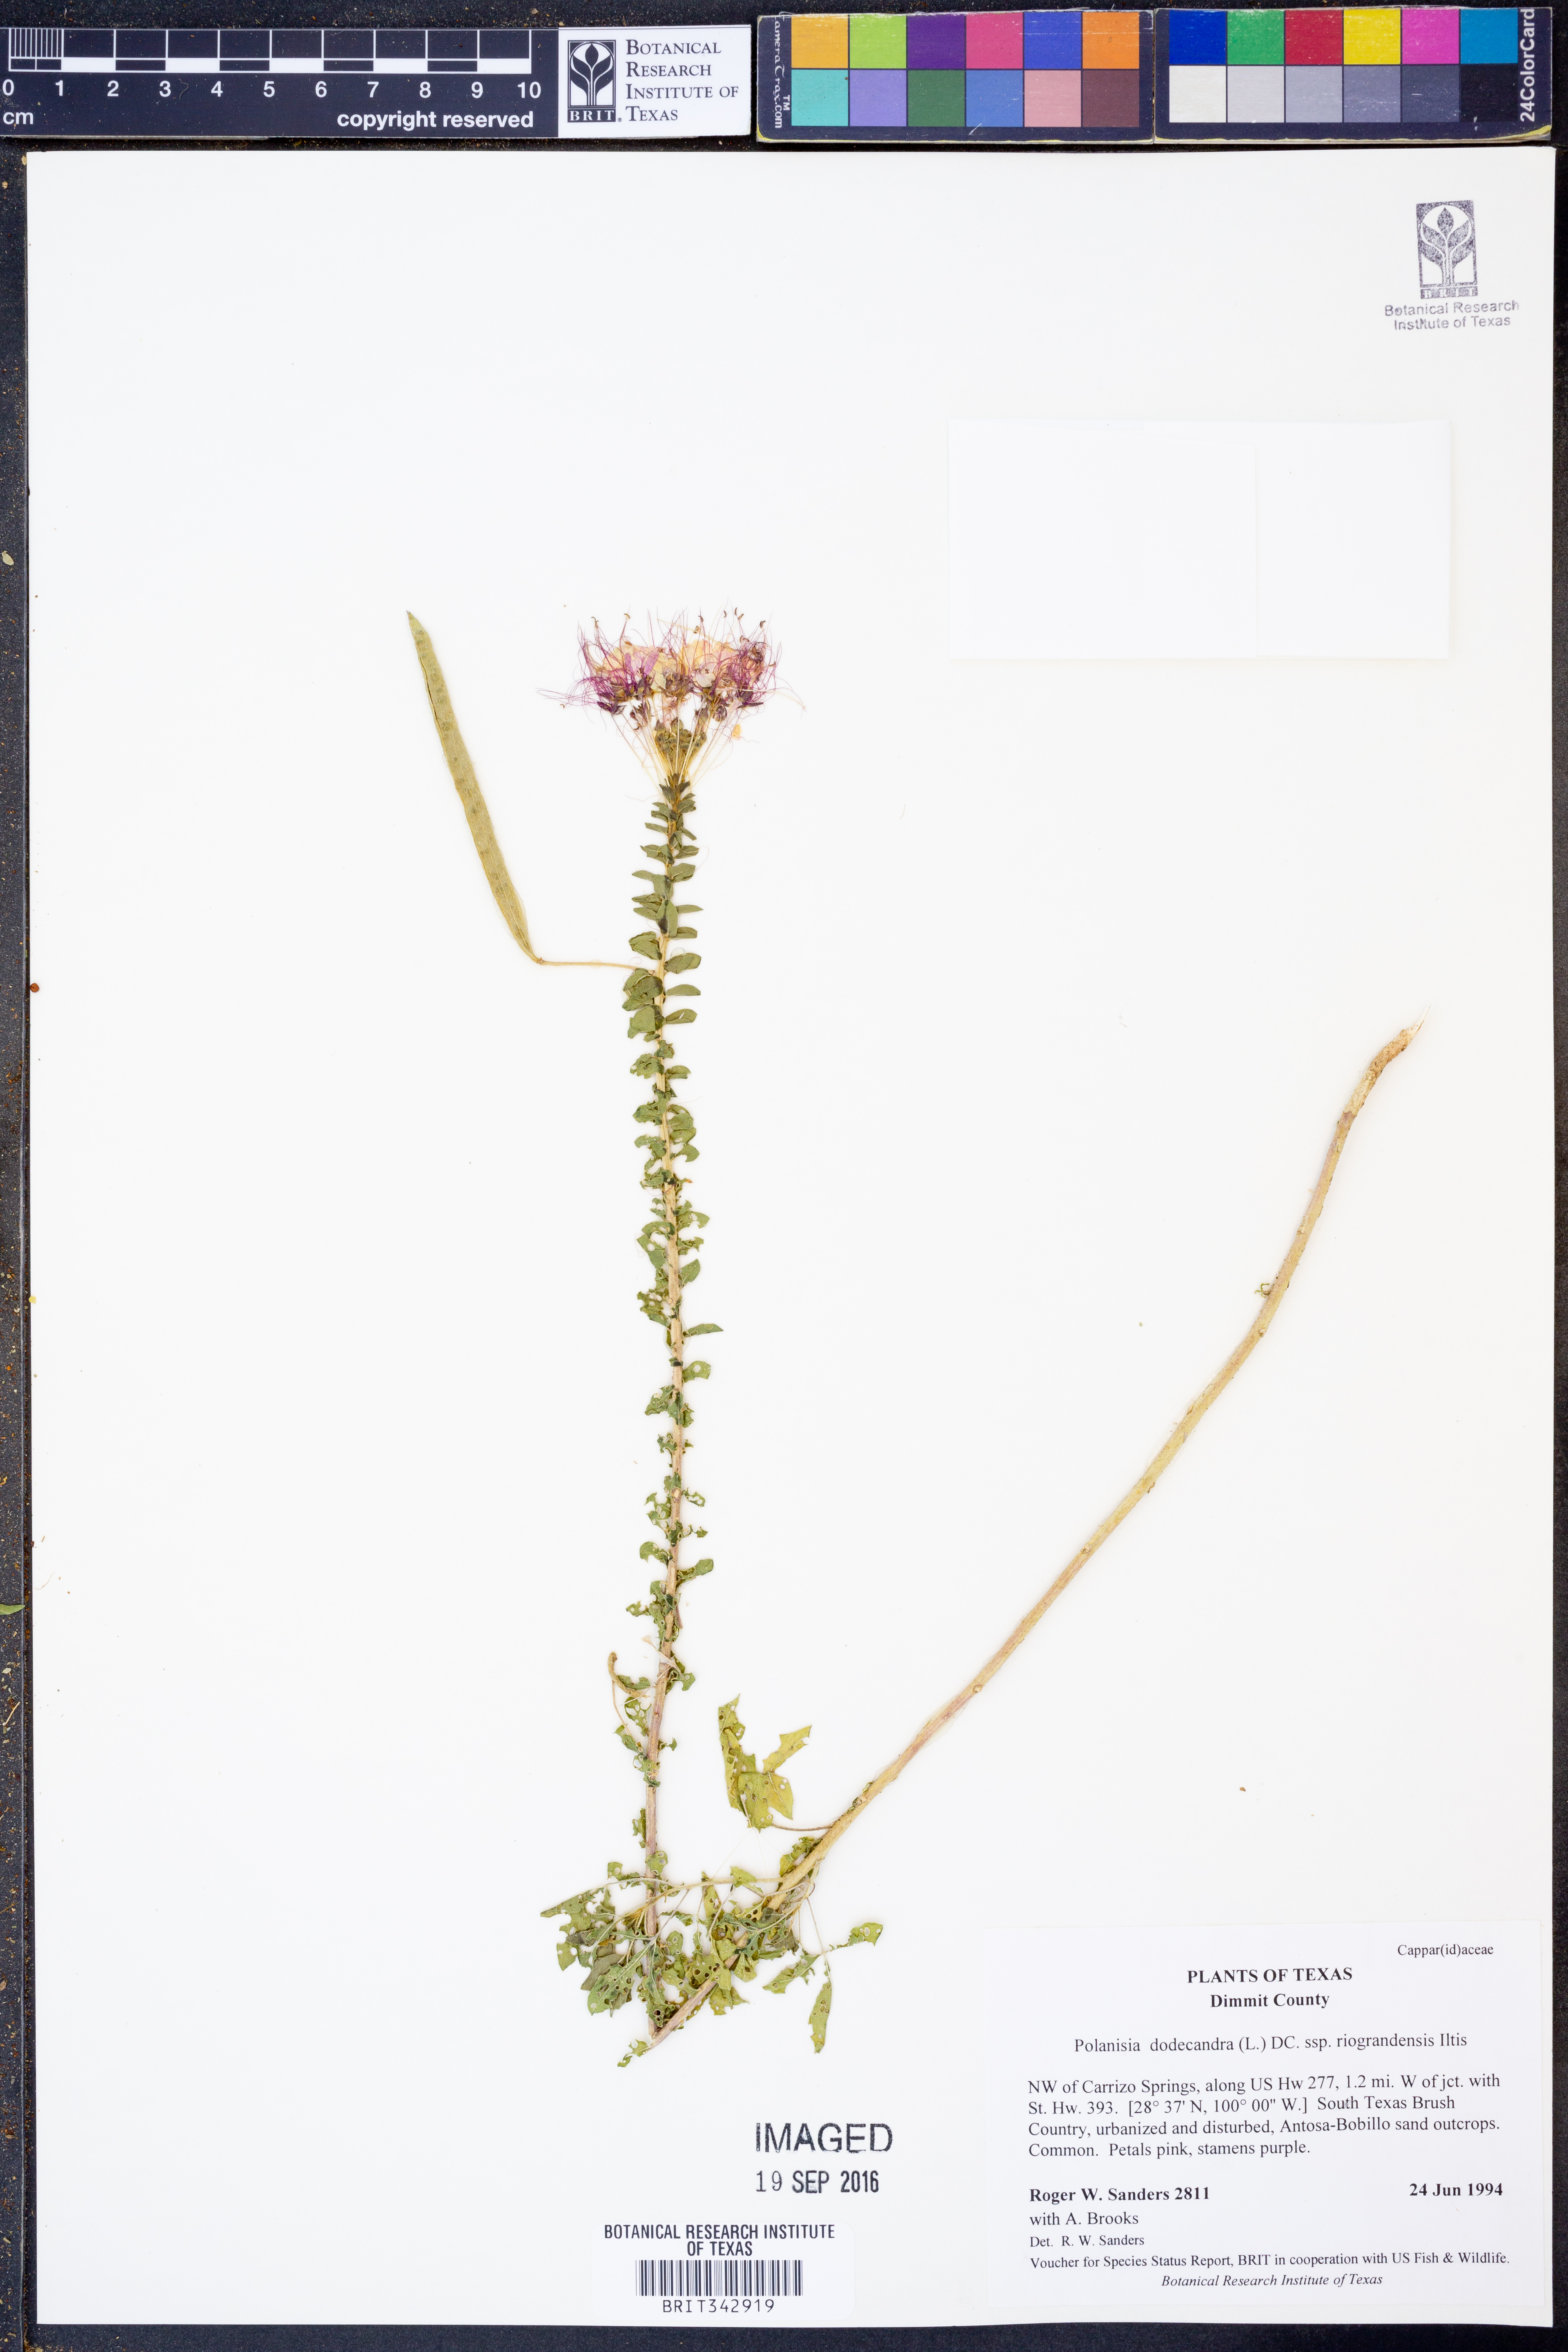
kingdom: Plantae
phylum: Tracheophyta
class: Magnoliopsida
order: Brassicales
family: Cleomaceae
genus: Polanisia
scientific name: Polanisia dodecandra
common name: Clammyweed
